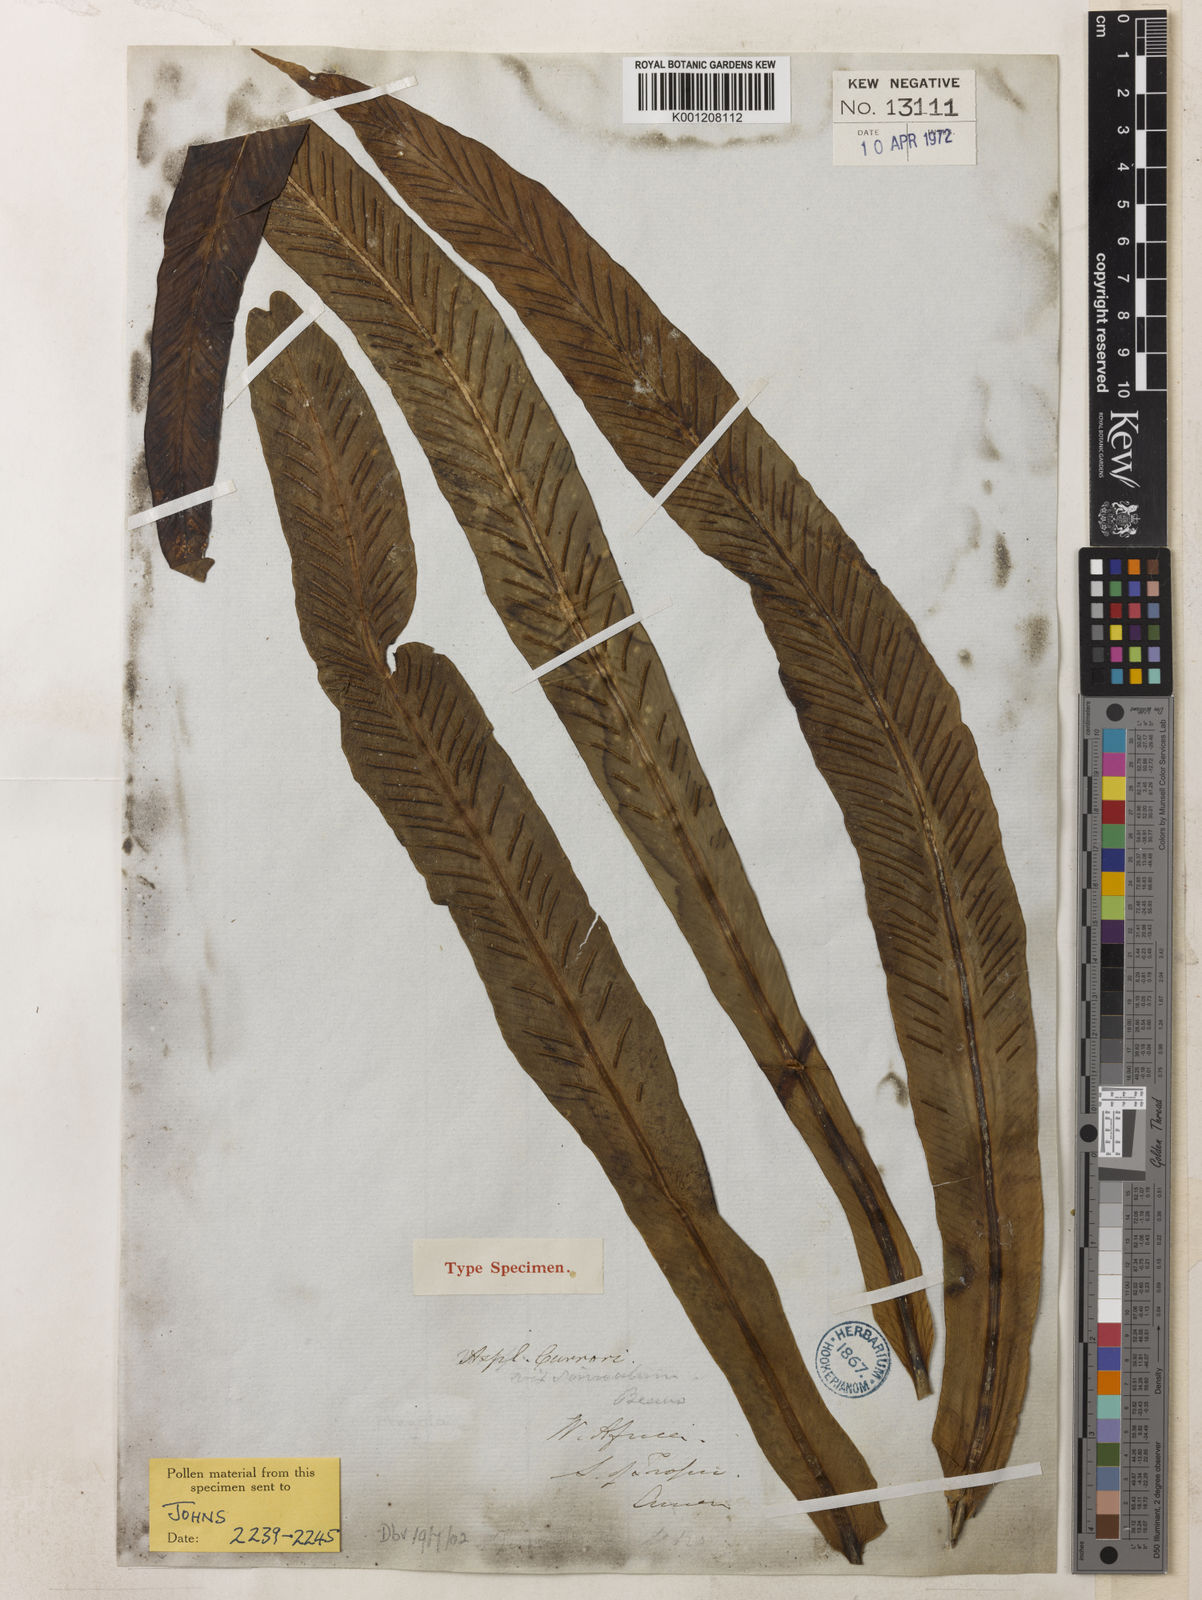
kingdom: Plantae
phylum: Tracheophyta
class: Polypodiopsida
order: Polypodiales
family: Aspleniaceae
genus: Asplenium
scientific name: Asplenium currorii
